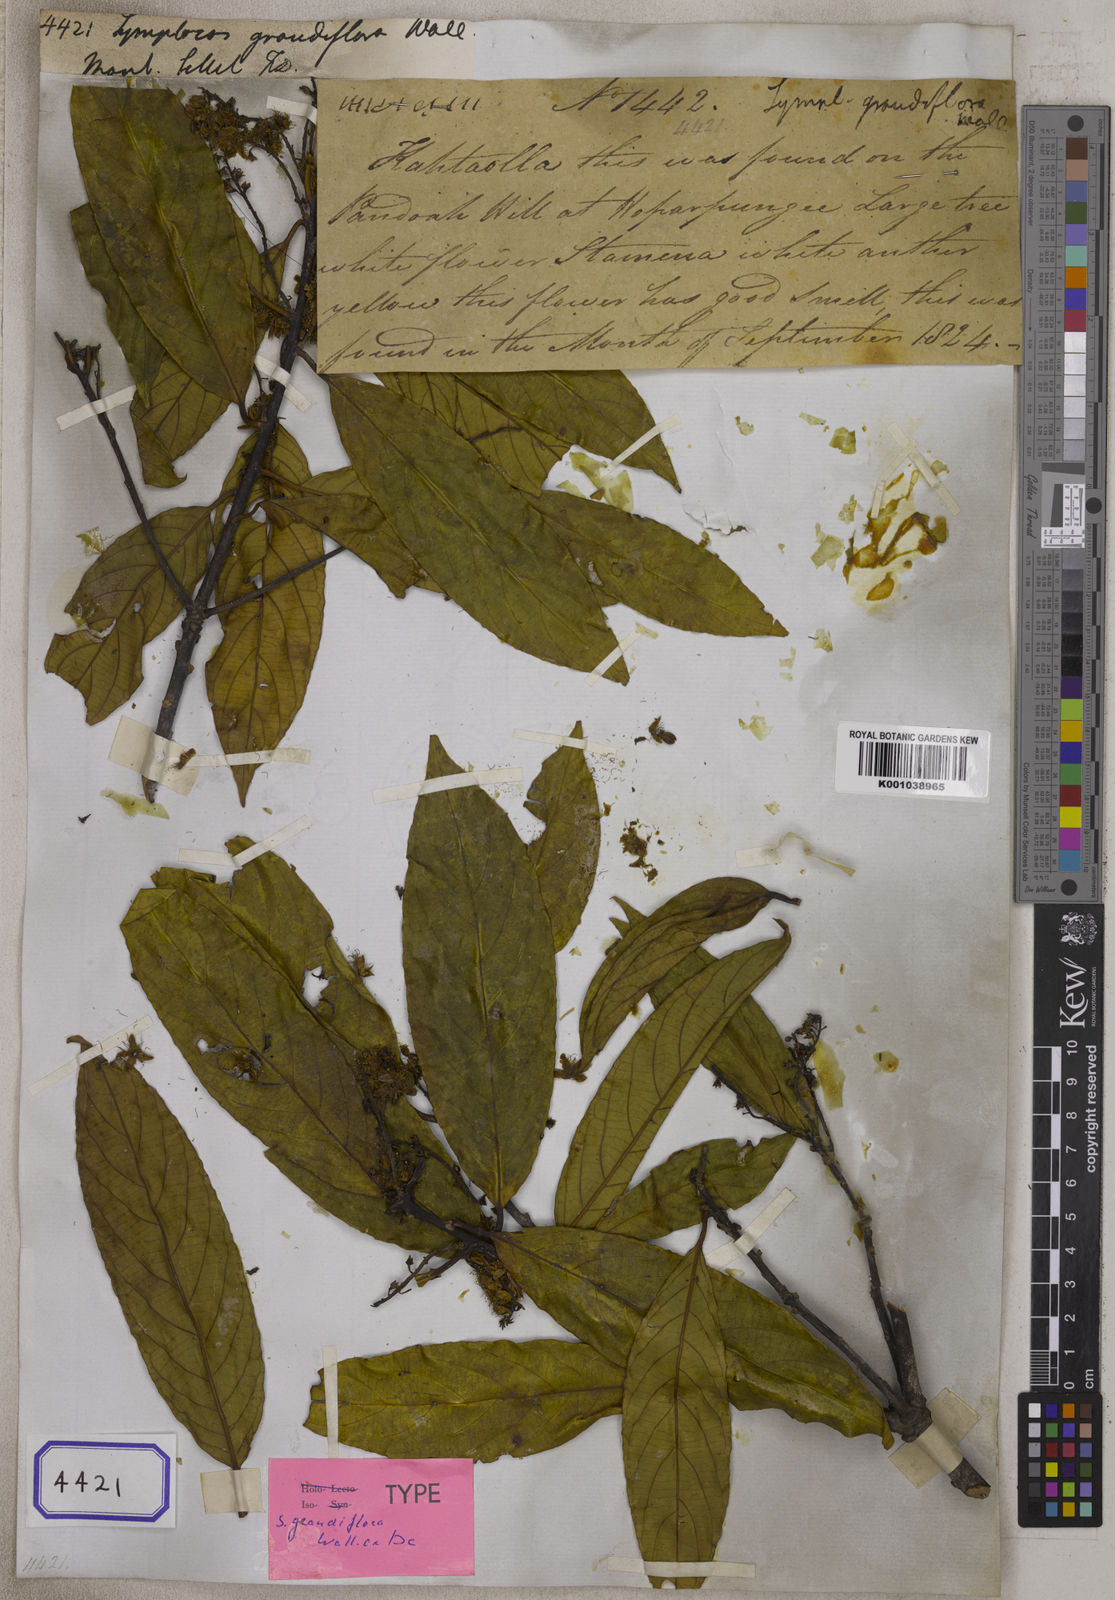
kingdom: Plantae
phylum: Tracheophyta
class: Magnoliopsida
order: Ericales
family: Symplocaceae
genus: Symplocos
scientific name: Symplocos
